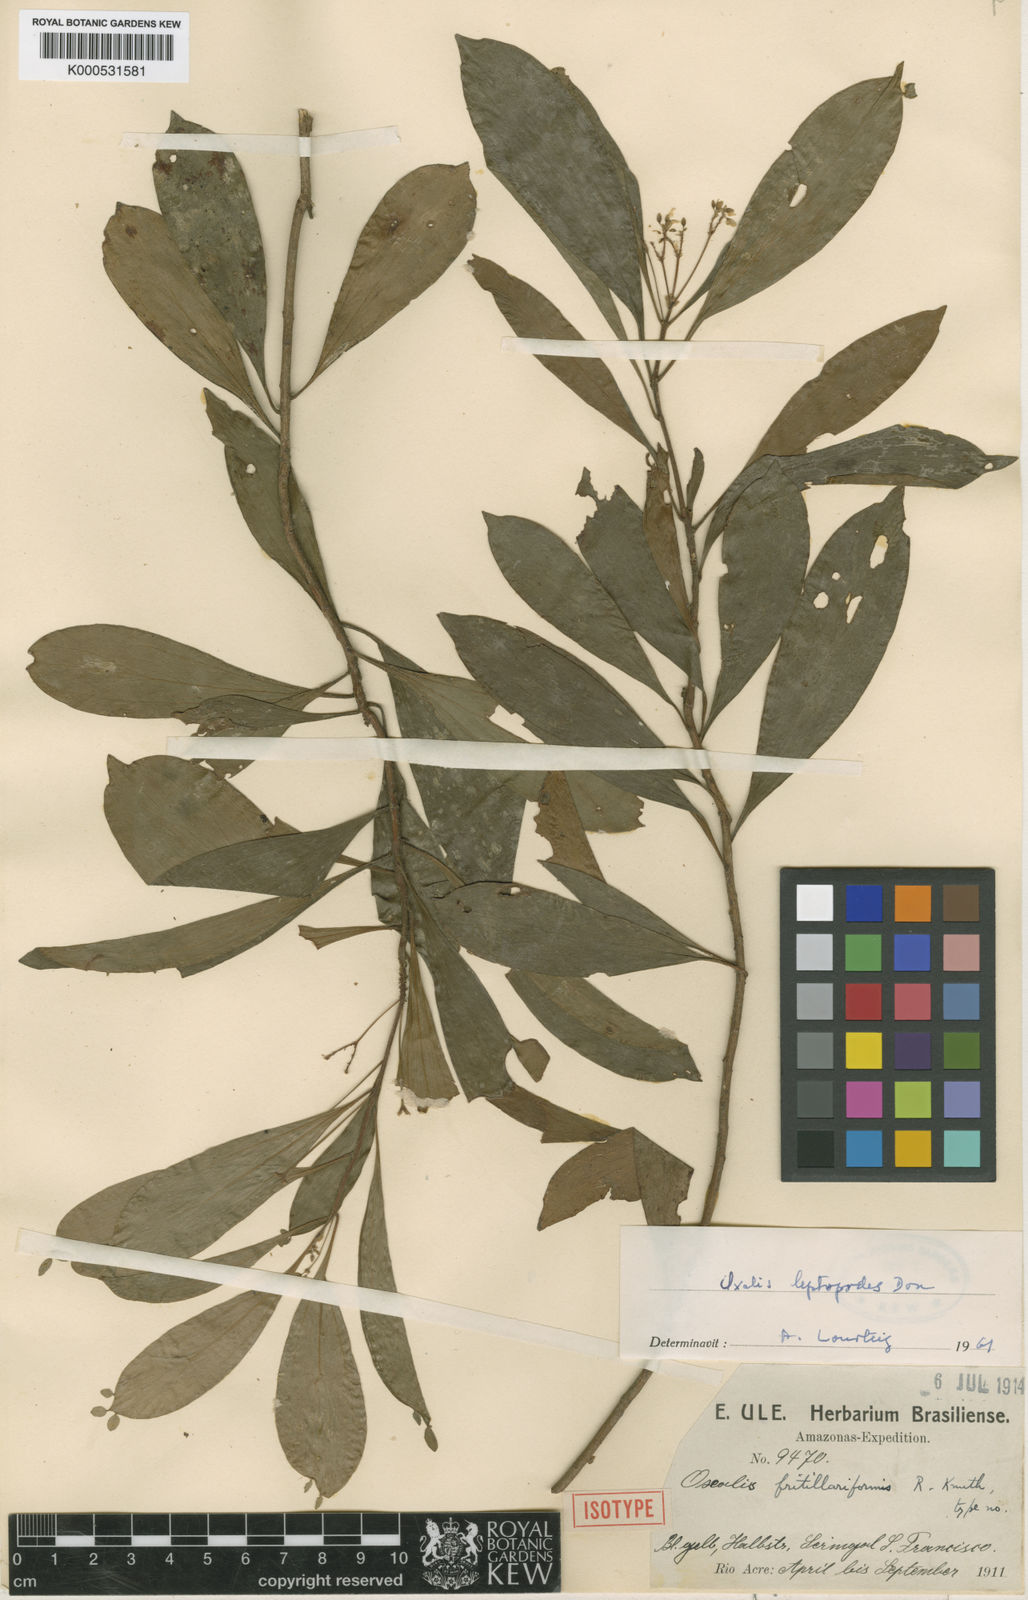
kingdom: Plantae
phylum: Tracheophyta
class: Magnoliopsida
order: Oxalidales
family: Oxalidaceae
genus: Oxalis
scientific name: Oxalis leptopodes
